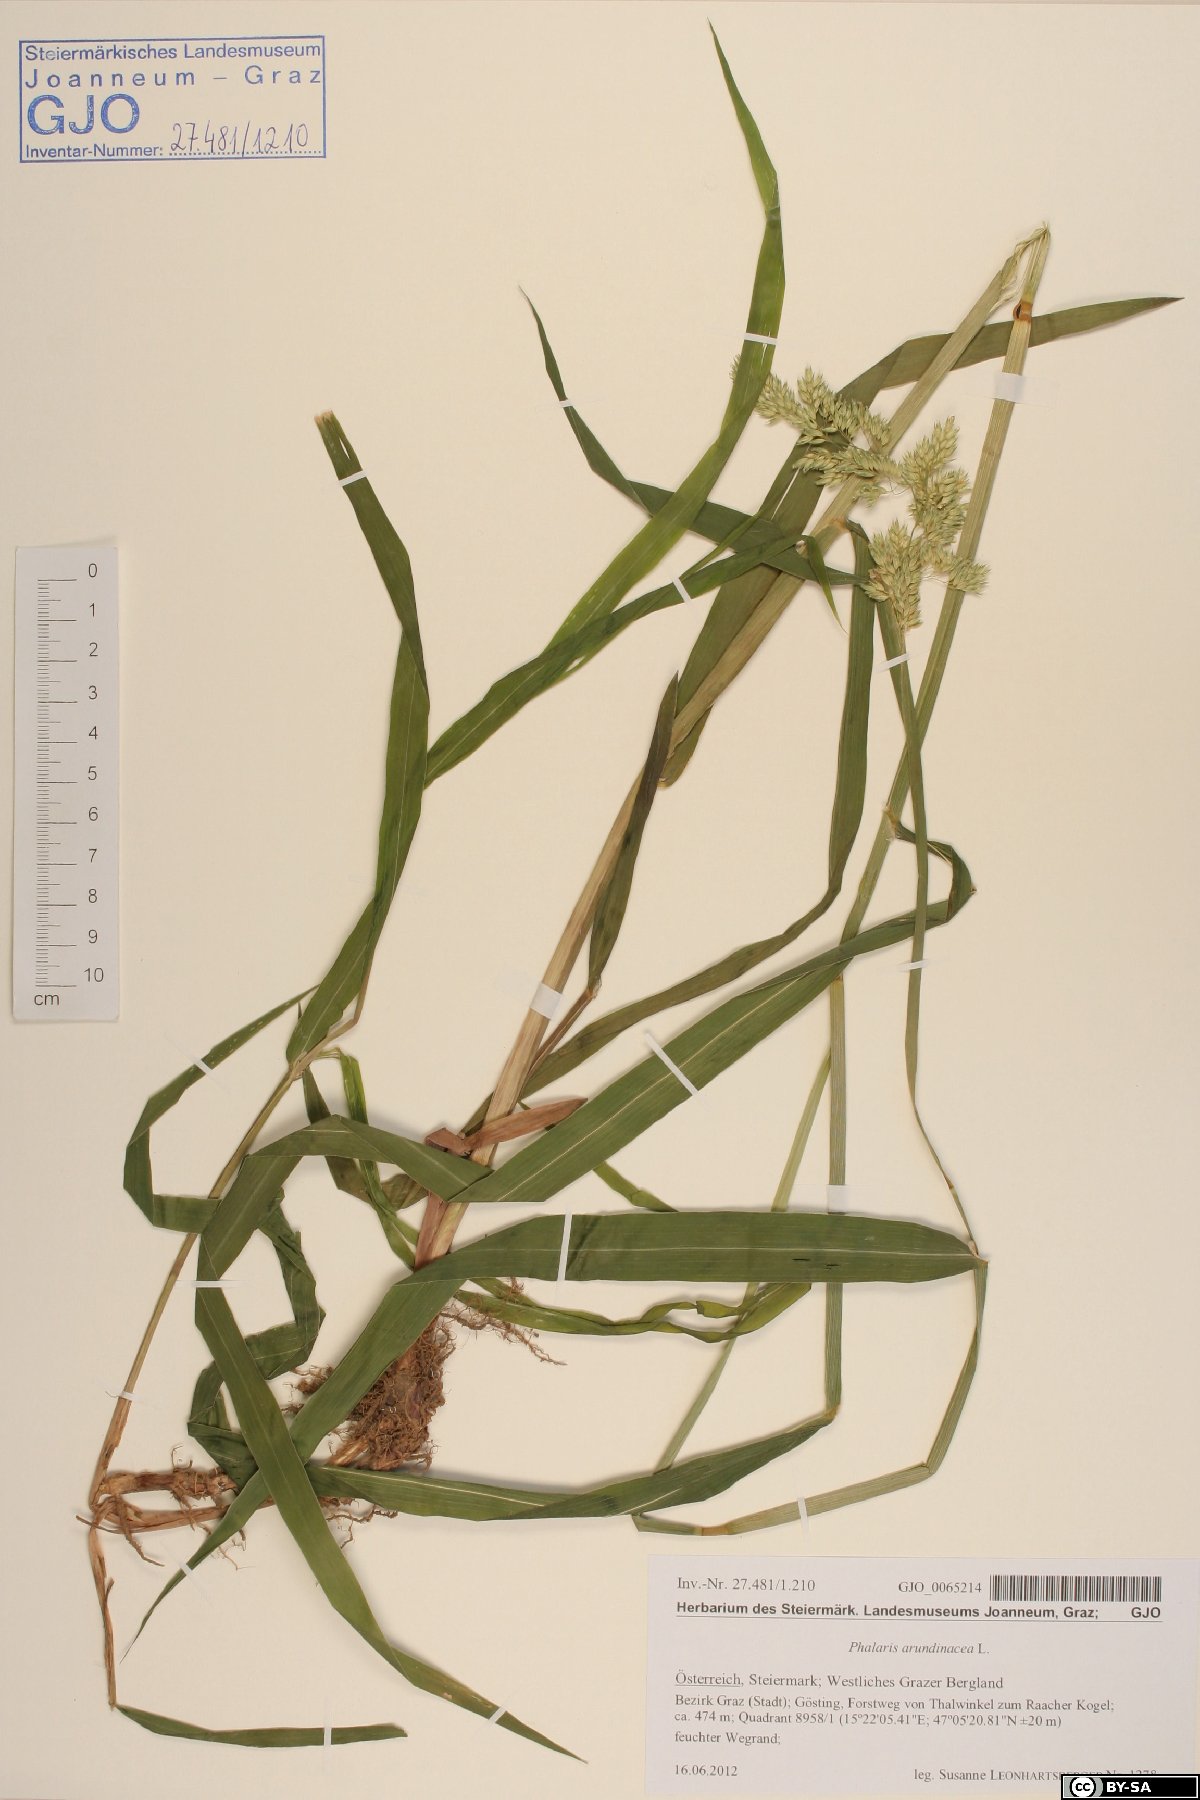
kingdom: Plantae
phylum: Tracheophyta
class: Liliopsida
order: Poales
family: Poaceae
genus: Phalaris
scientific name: Phalaris arundinacea
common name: Reed canary-grass
